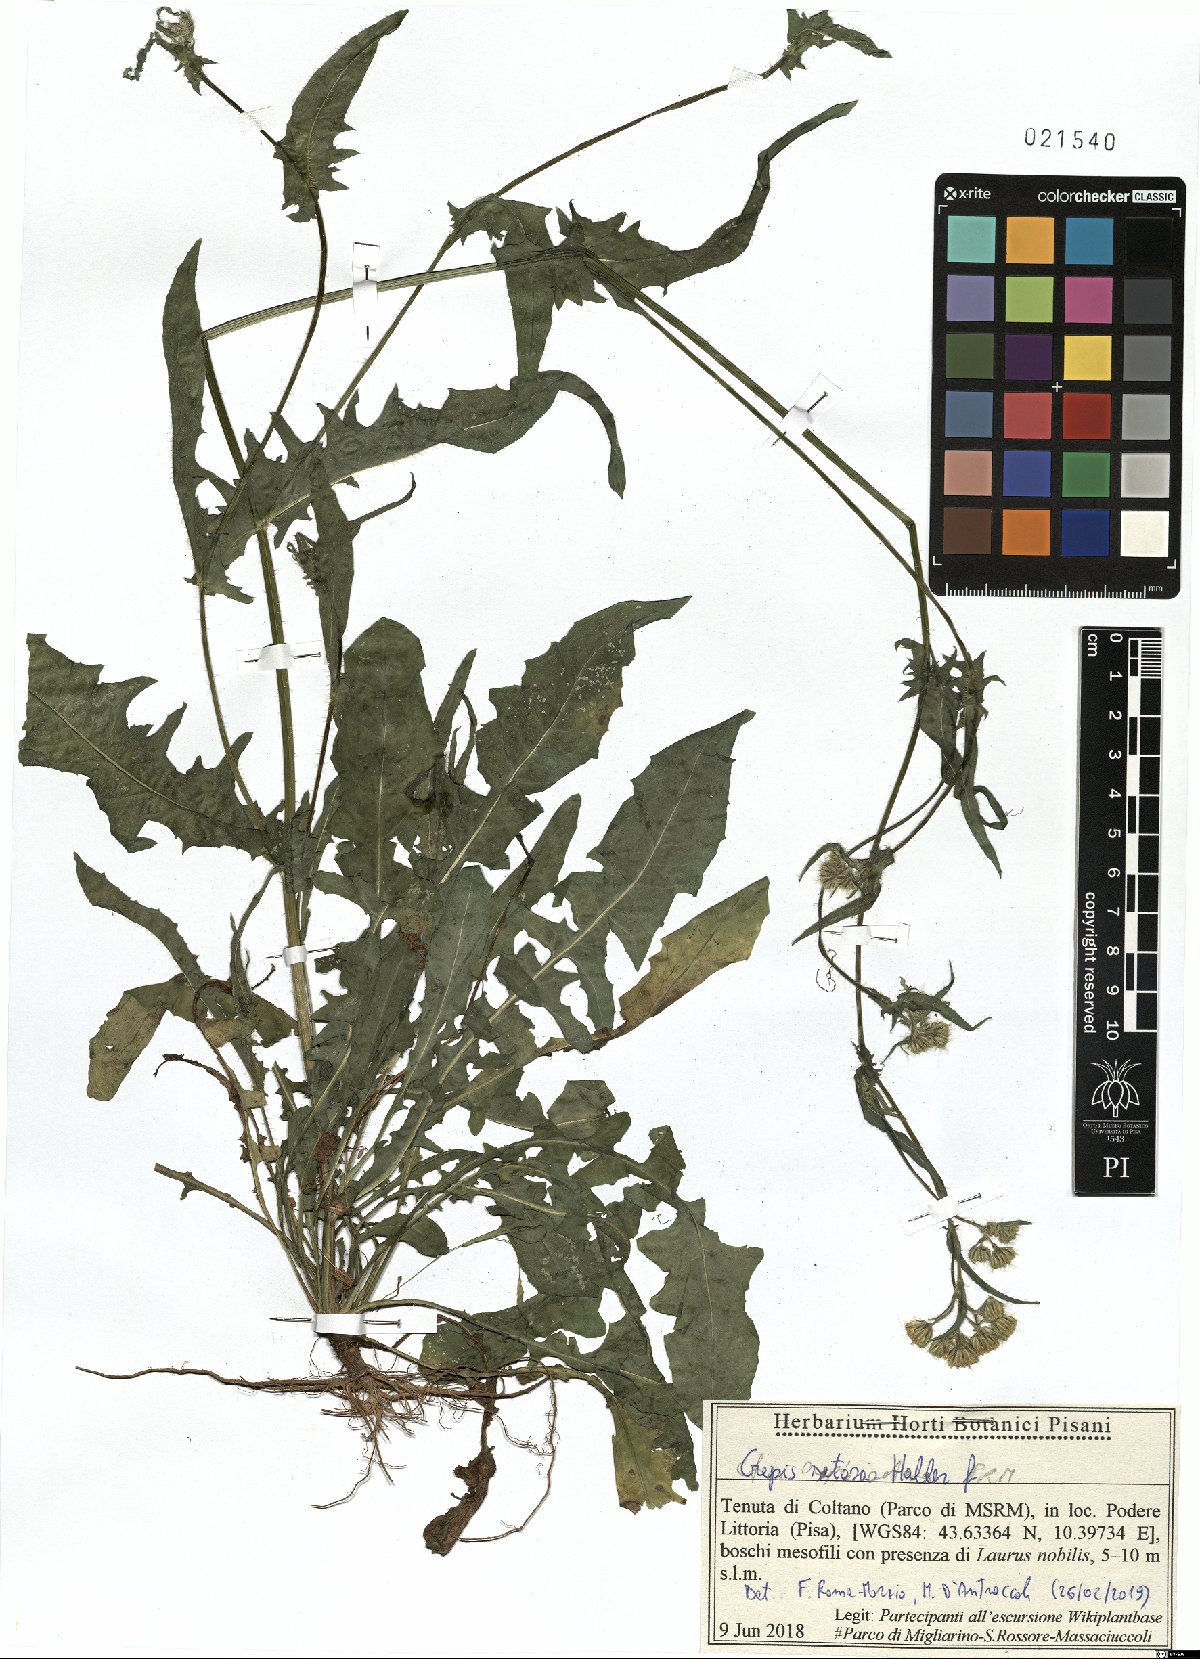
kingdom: Plantae
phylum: Tracheophyta
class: Magnoliopsida
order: Asterales
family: Asteraceae
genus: Crepis
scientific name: Crepis setosa
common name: Bristly hawk's-beard
